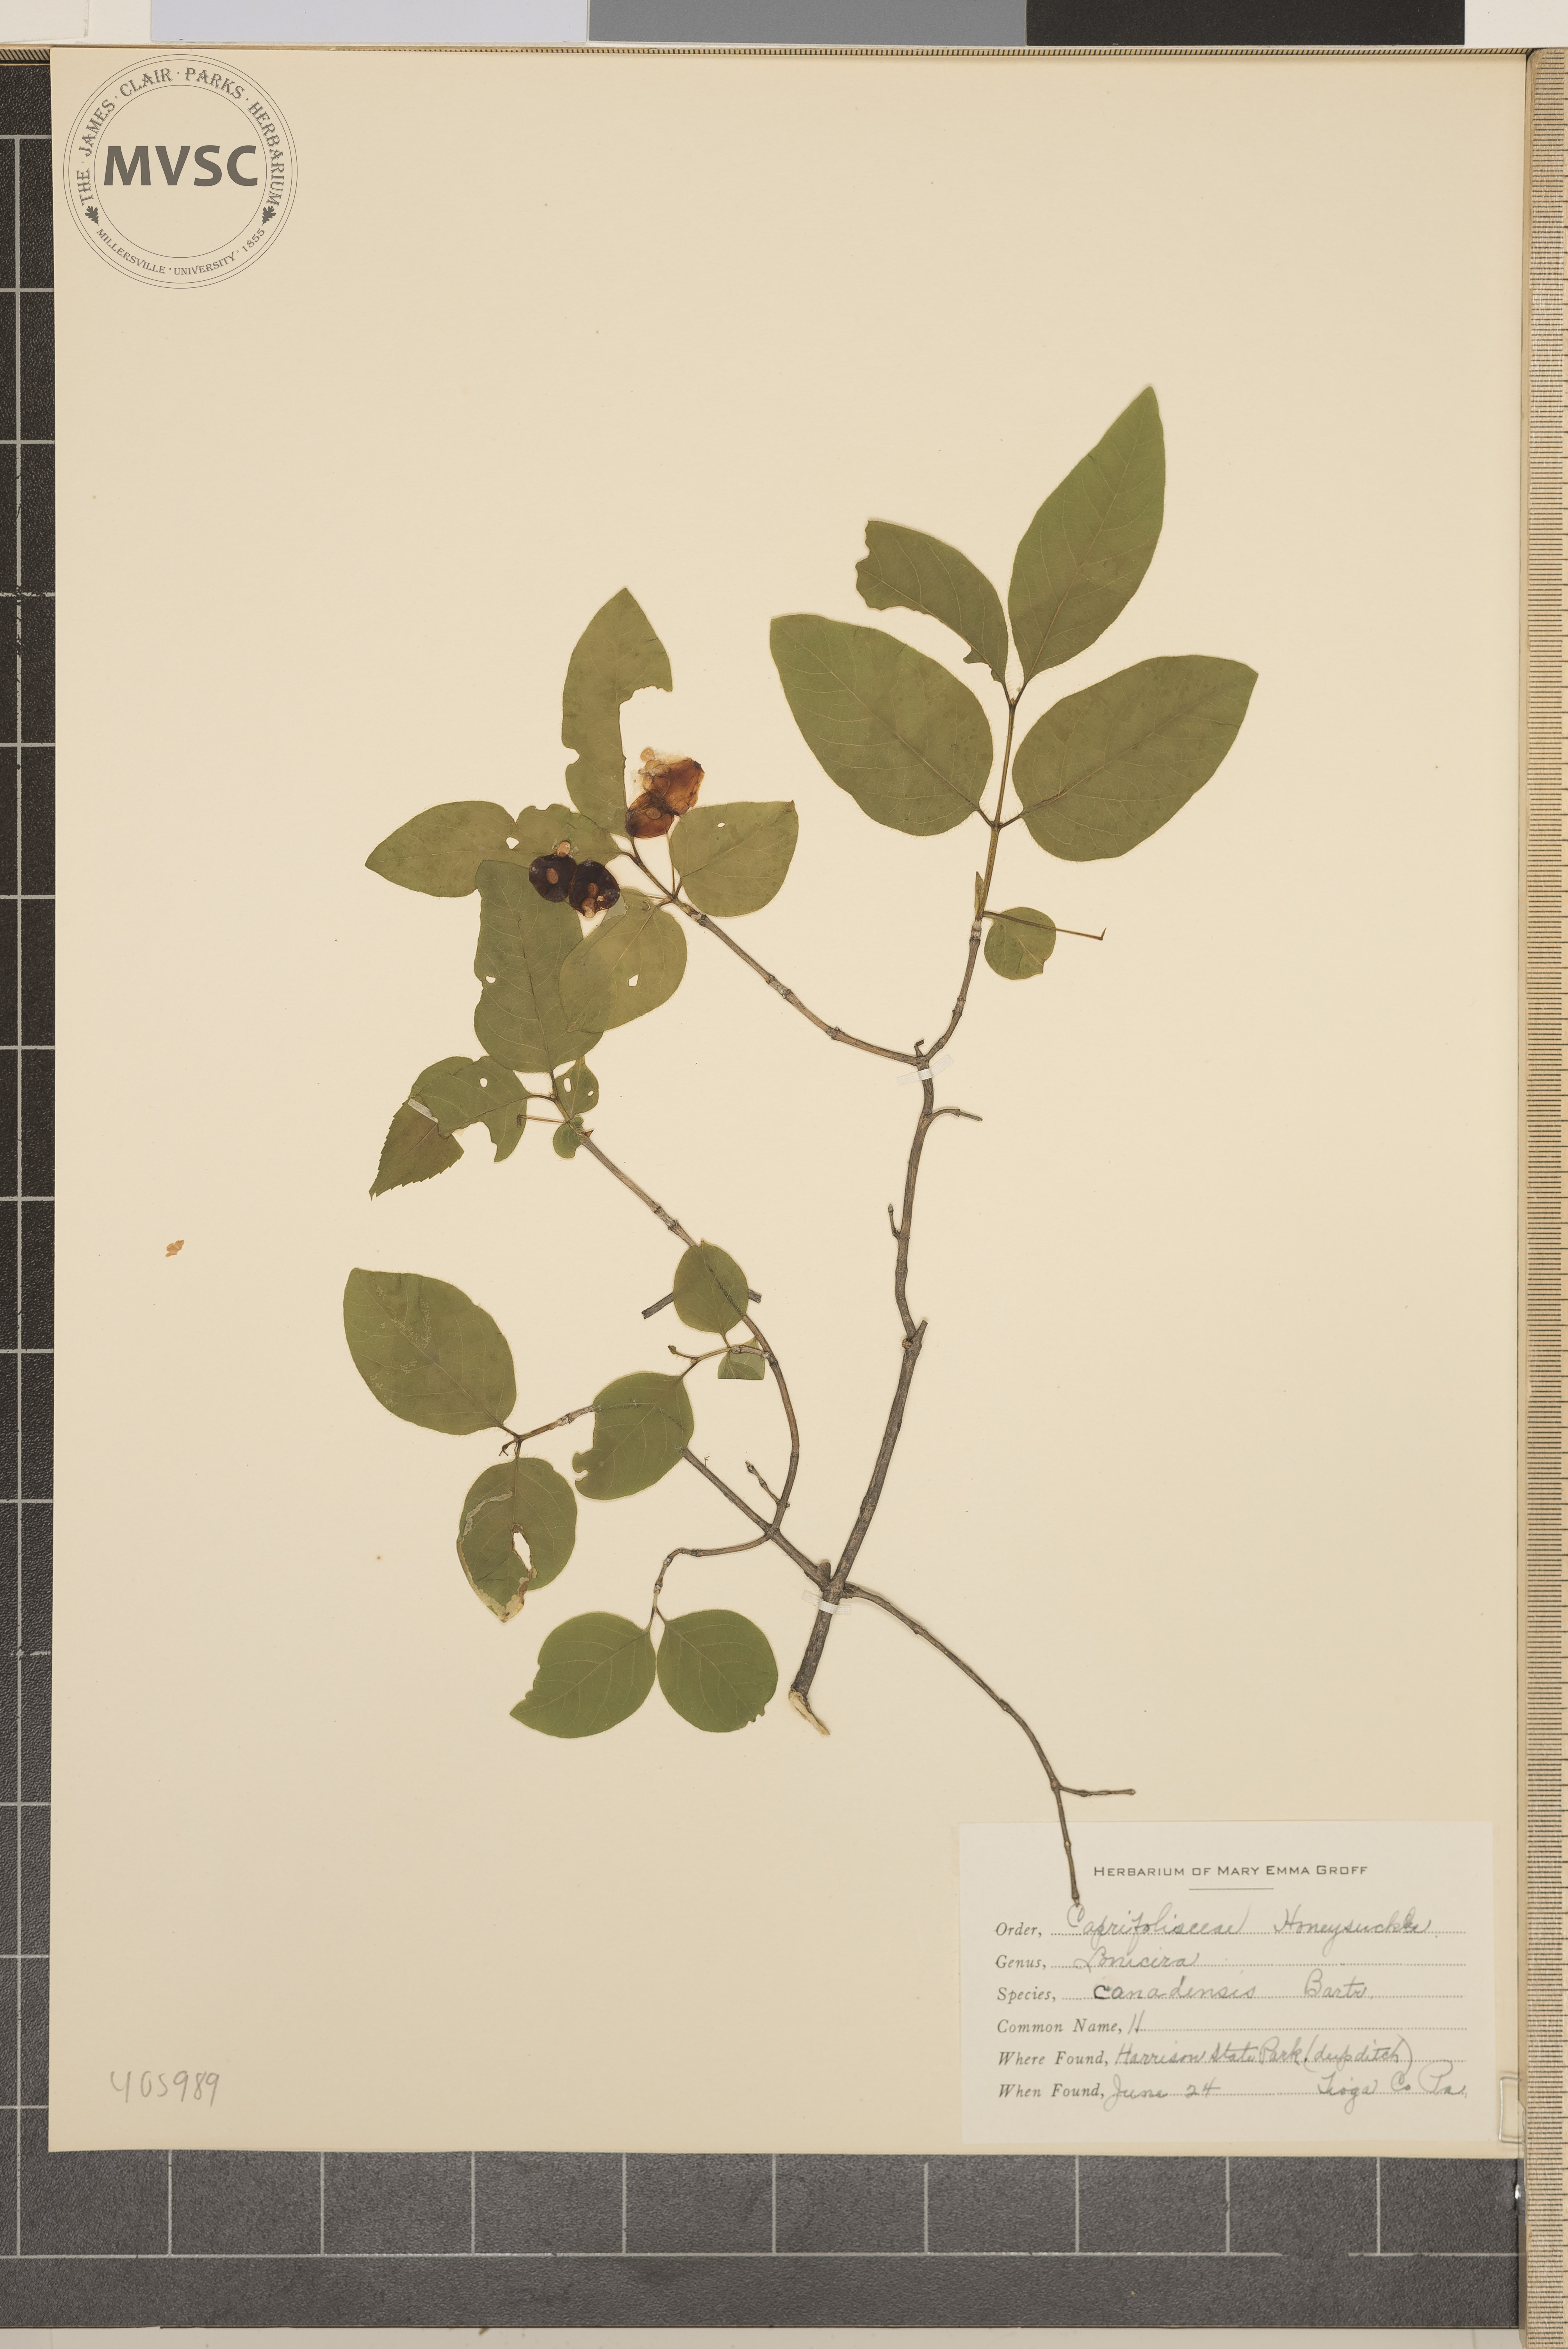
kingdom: Plantae
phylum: Tracheophyta
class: Magnoliopsida
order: Dipsacales
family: Caprifoliaceae
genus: Lonicera
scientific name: Lonicera canadensis
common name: Fly Honeysuckle
